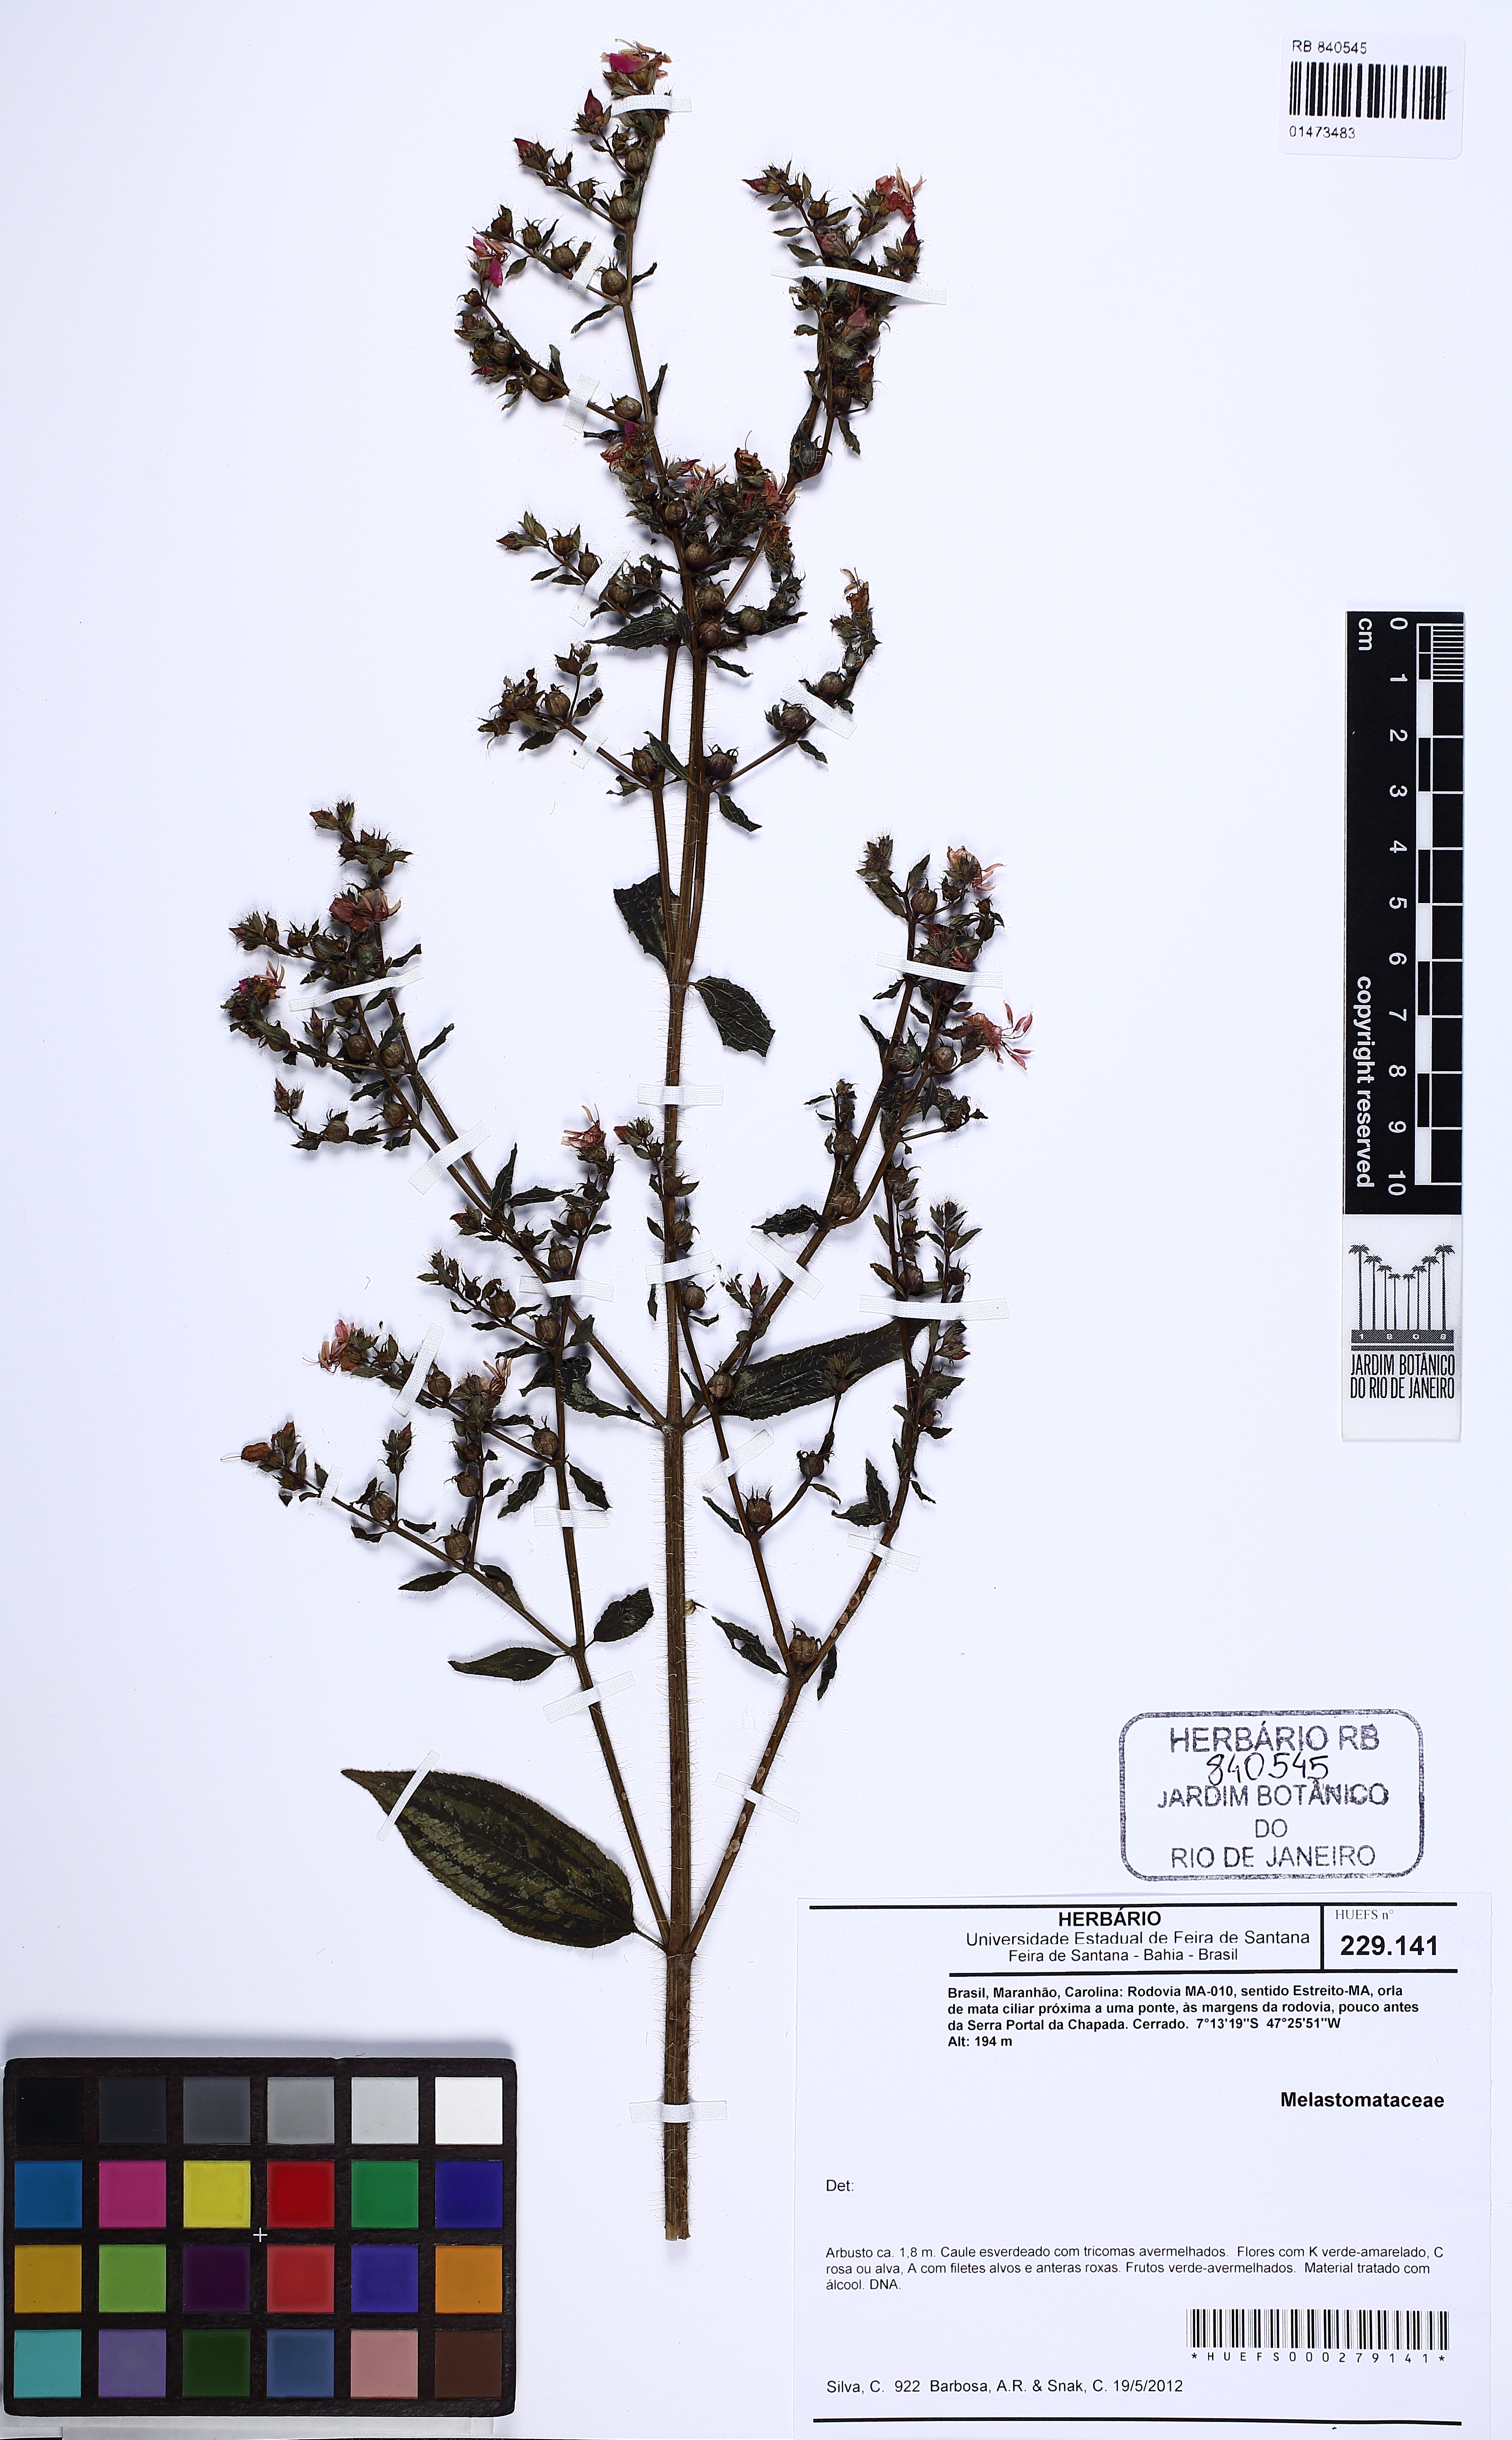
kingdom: Plantae
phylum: Tracheophyta
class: Magnoliopsida
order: Myrtales
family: Melastomataceae
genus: Rhynchanthera
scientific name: Rhynchanthera hispida
